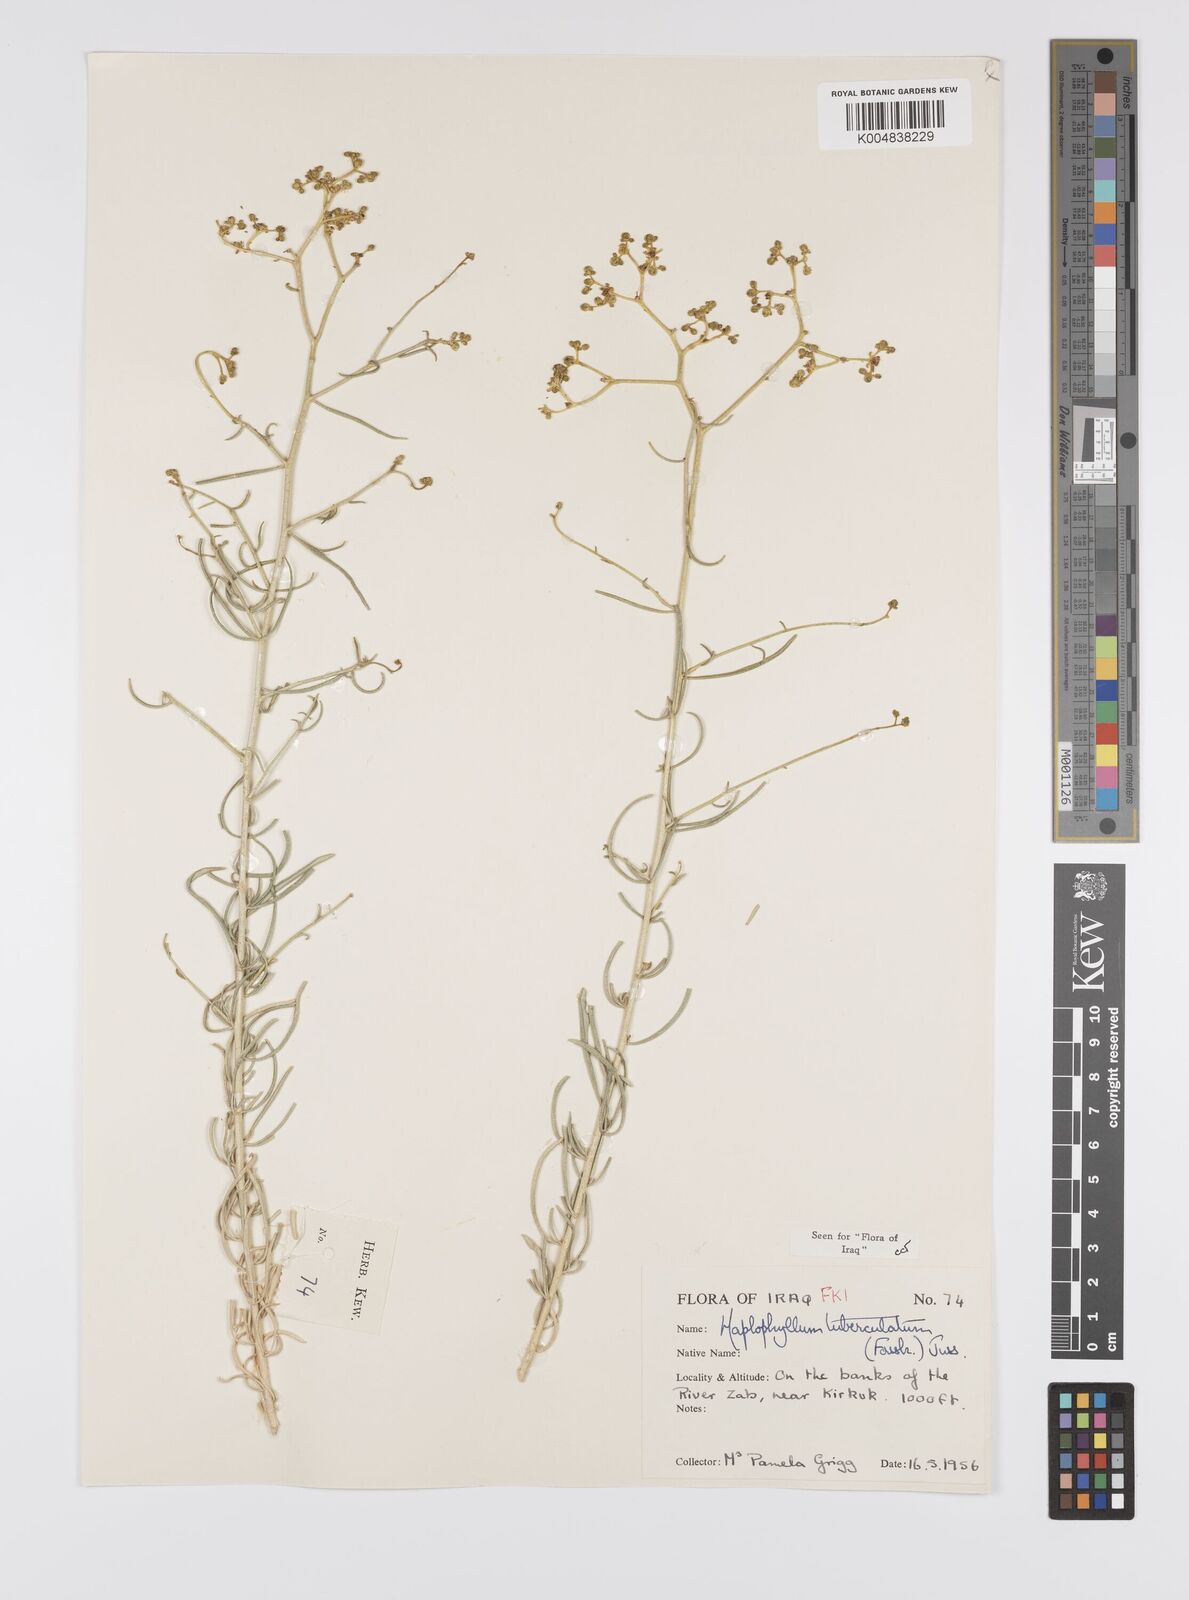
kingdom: Plantae
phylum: Tracheophyta
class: Magnoliopsida
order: Sapindales
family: Rutaceae
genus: Haplophyllum
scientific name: Haplophyllum tuberculatum
